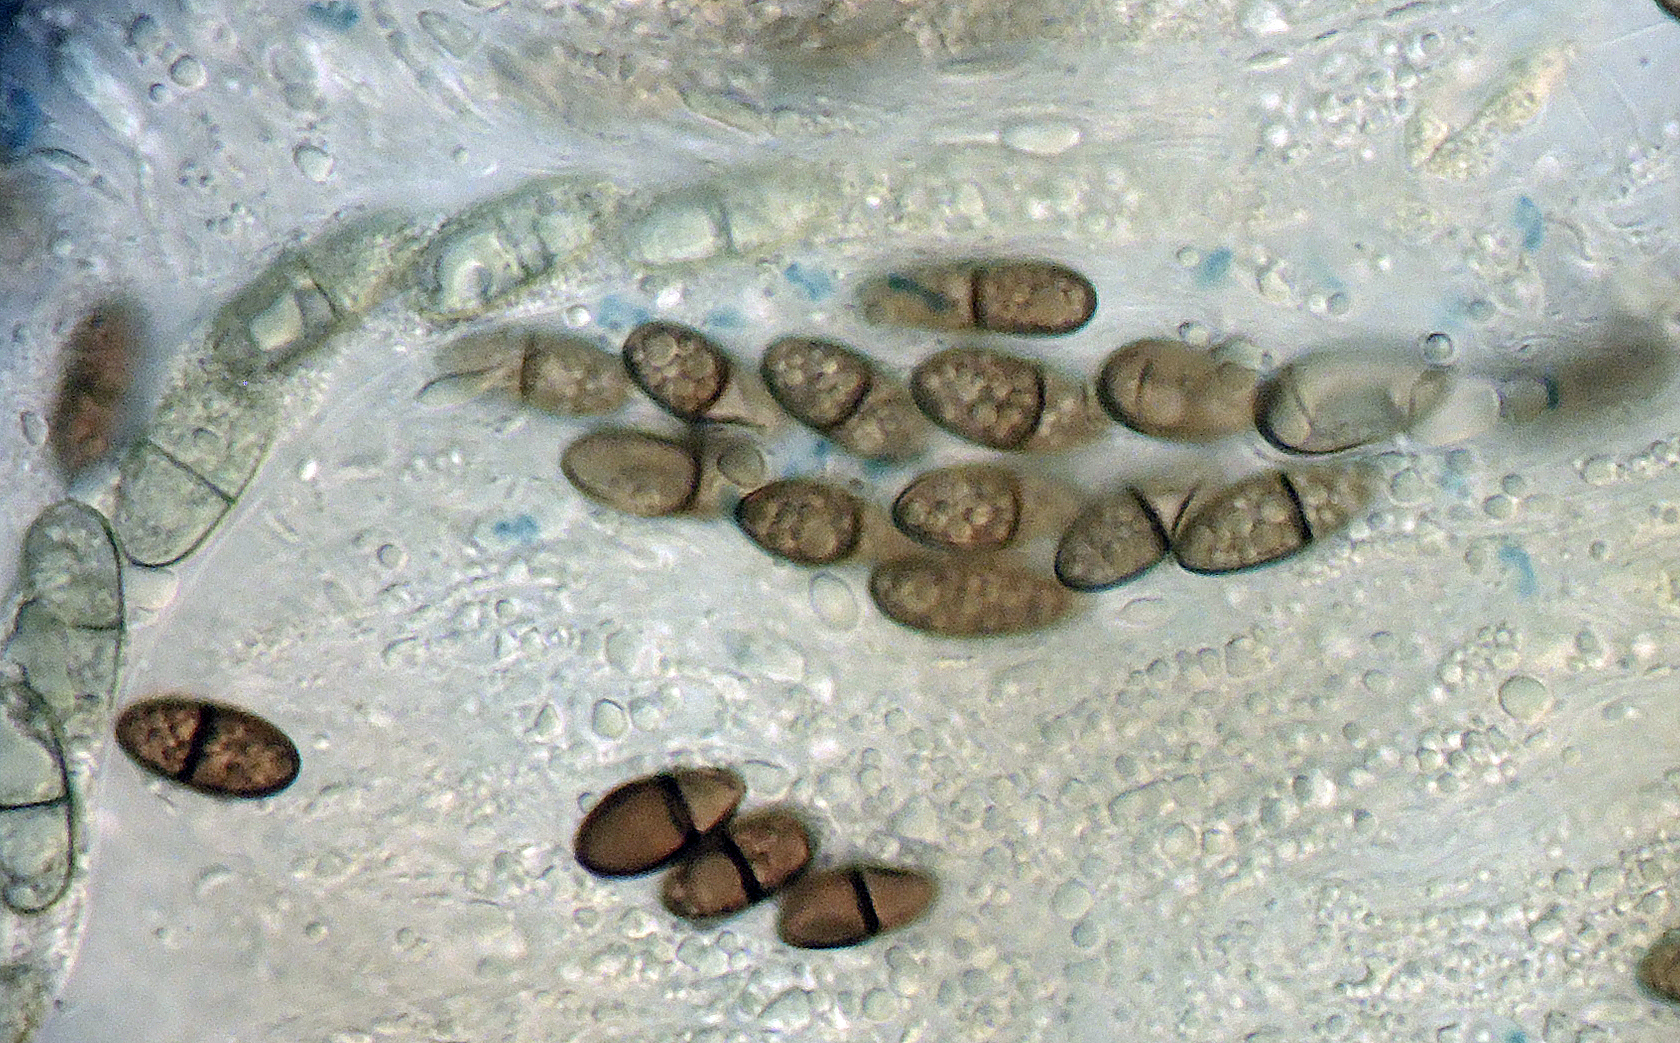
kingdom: Fungi
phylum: Ascomycota
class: Sordariomycetes
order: Amphisphaeriales
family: Amphisphaeriaceae
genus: Amphisphaeria
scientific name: Amphisphaeria multipunctata
